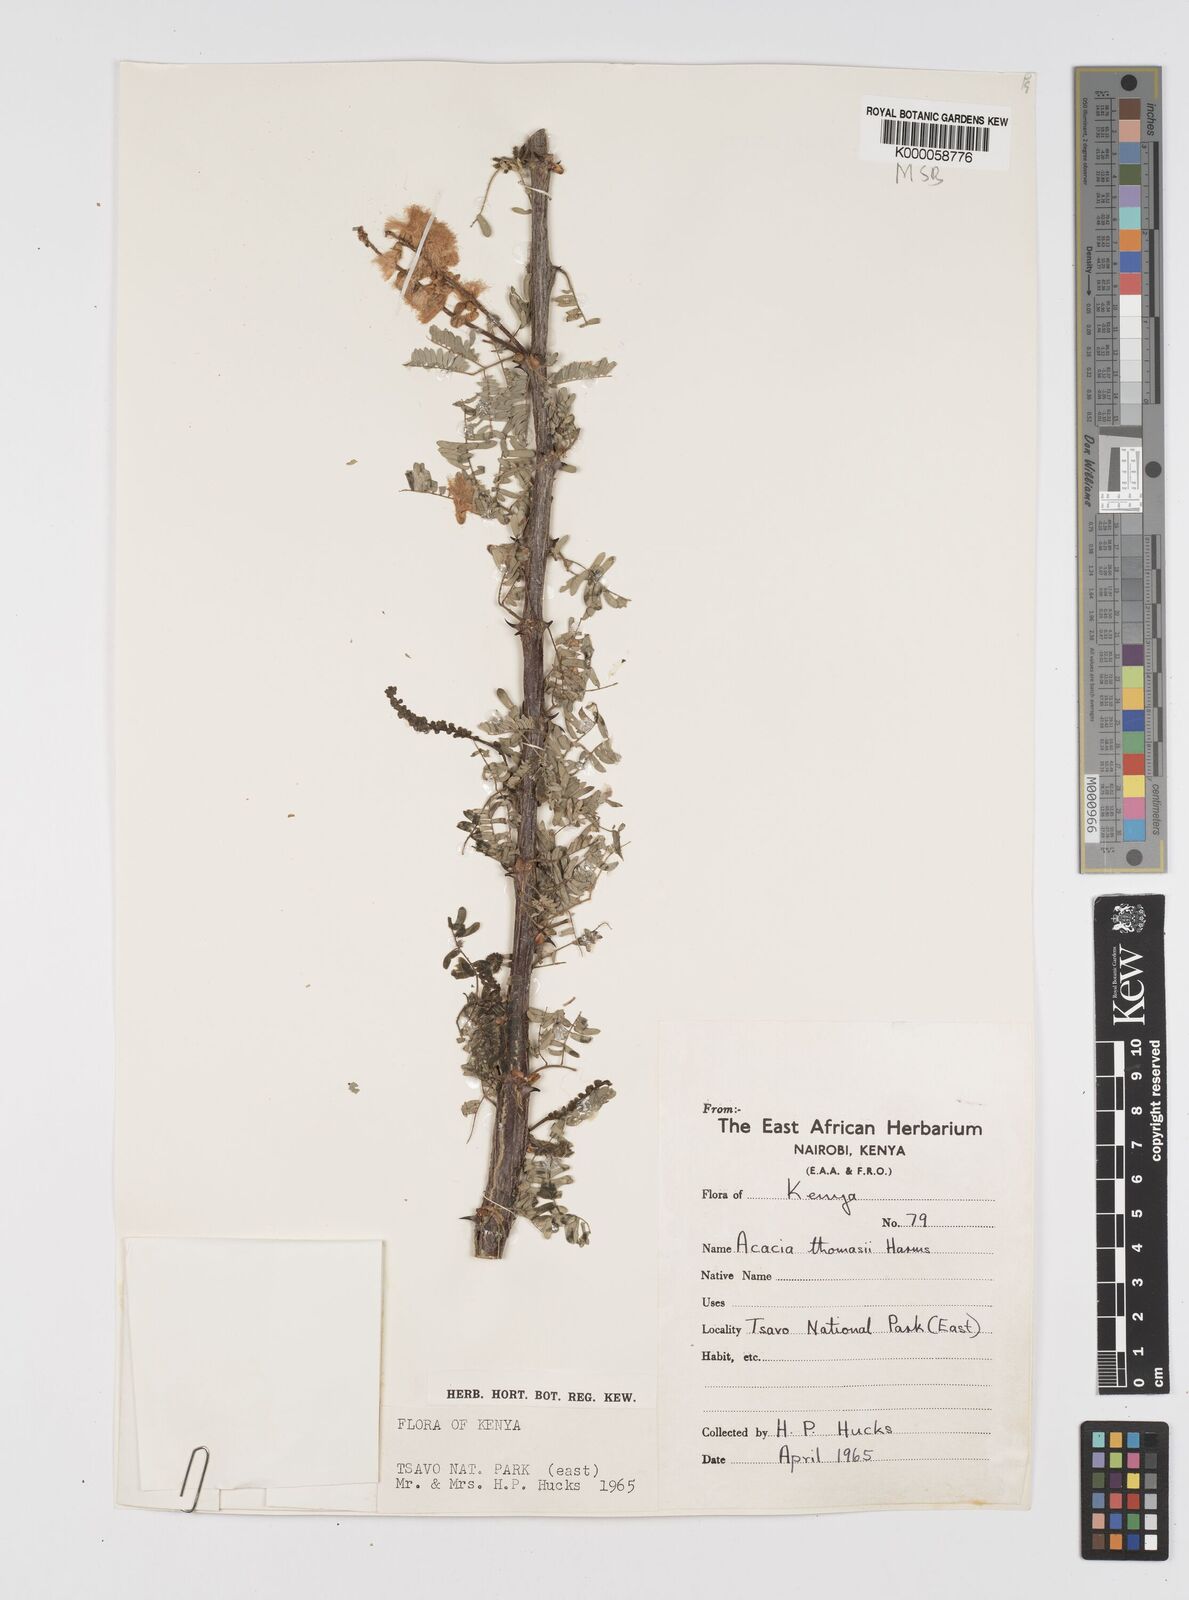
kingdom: Plantae
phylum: Tracheophyta
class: Magnoliopsida
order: Fabales
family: Fabaceae
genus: Senegalia
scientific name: Senegalia thomasii
